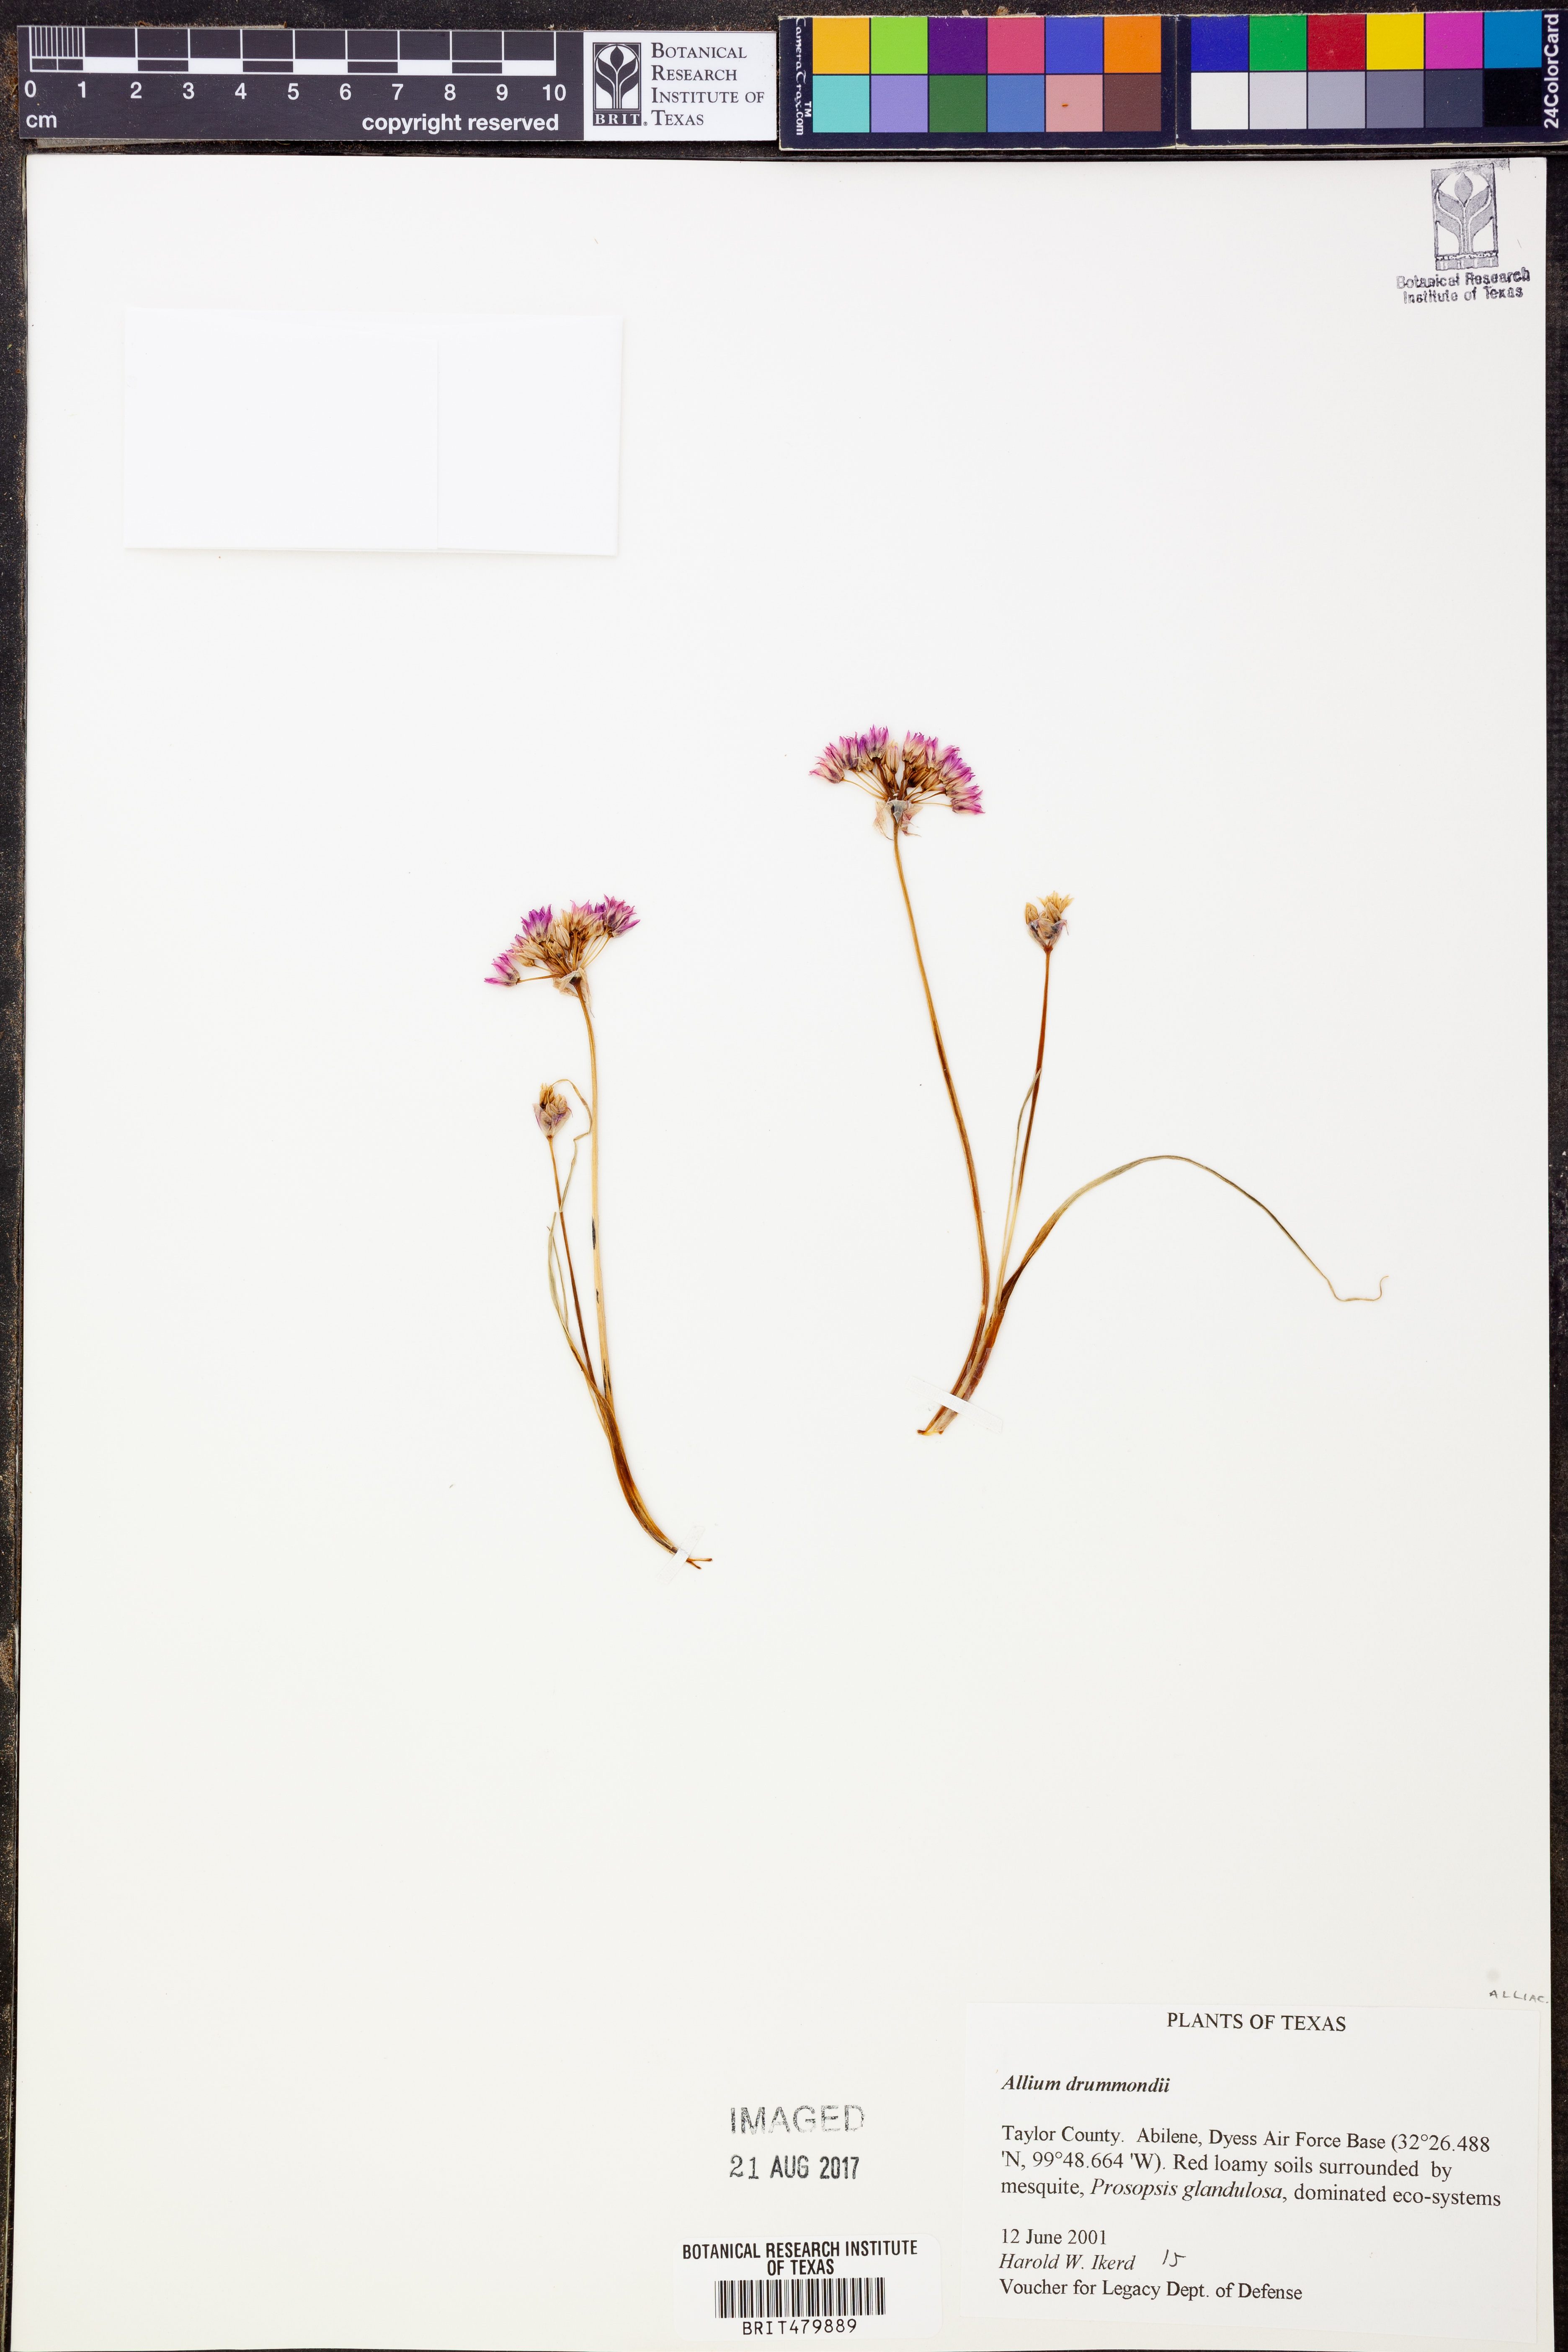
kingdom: Plantae
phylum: Tracheophyta
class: Liliopsida
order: Asparagales
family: Amaryllidaceae
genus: Allium
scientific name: Allium drummondii
